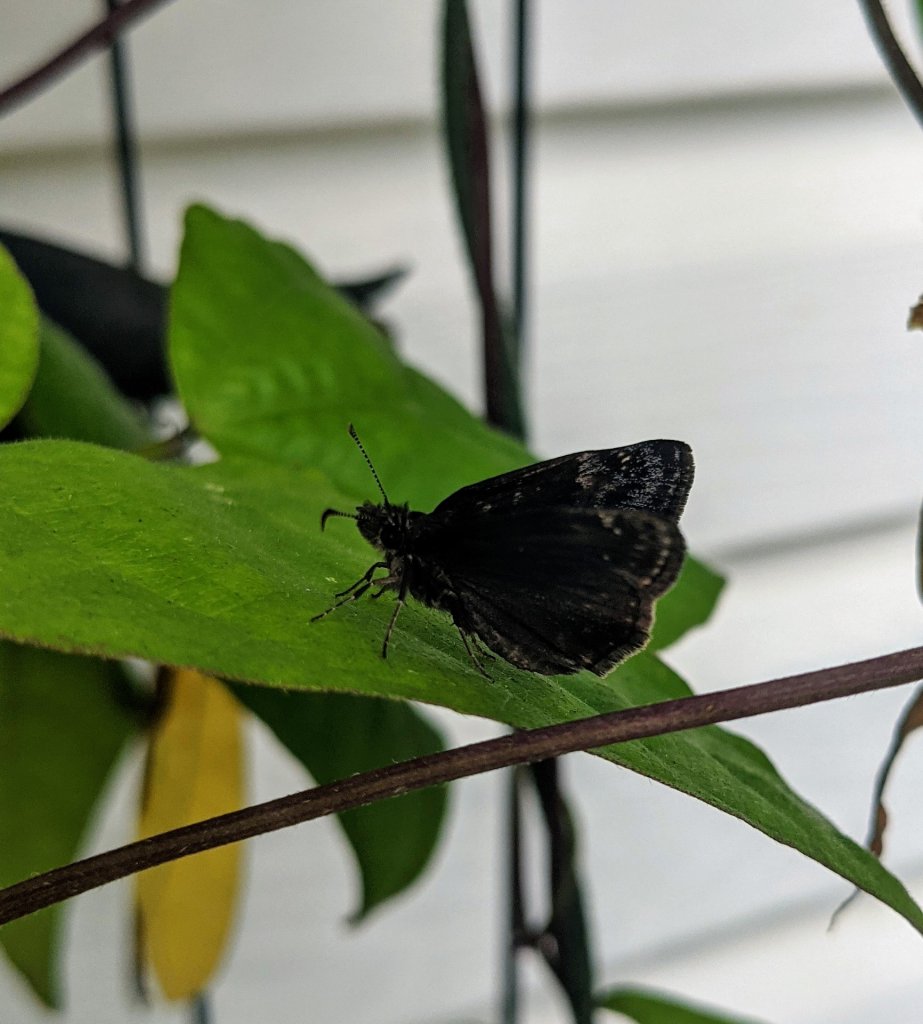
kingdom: Animalia
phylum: Arthropoda
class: Insecta
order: Lepidoptera
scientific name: Lepidoptera
